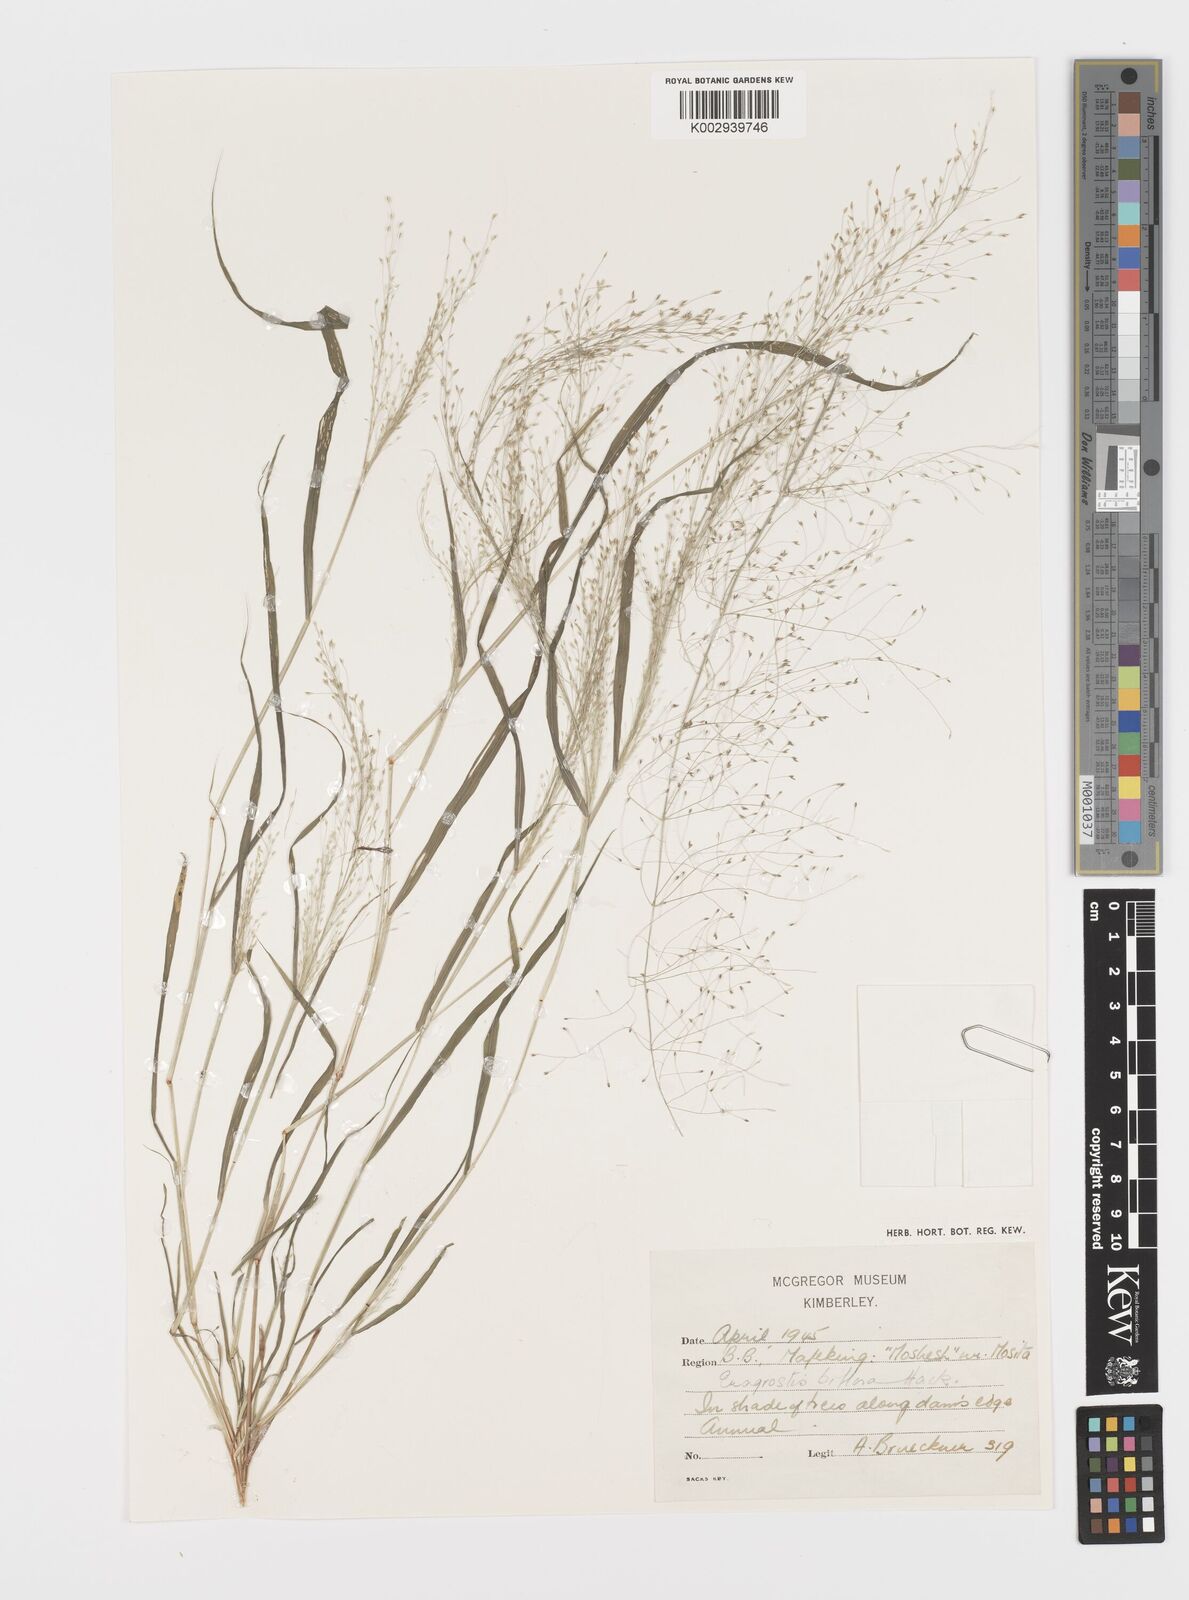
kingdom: Plantae
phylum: Tracheophyta
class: Liliopsida
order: Poales
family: Poaceae
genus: Eragrostis
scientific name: Eragrostis biflora
